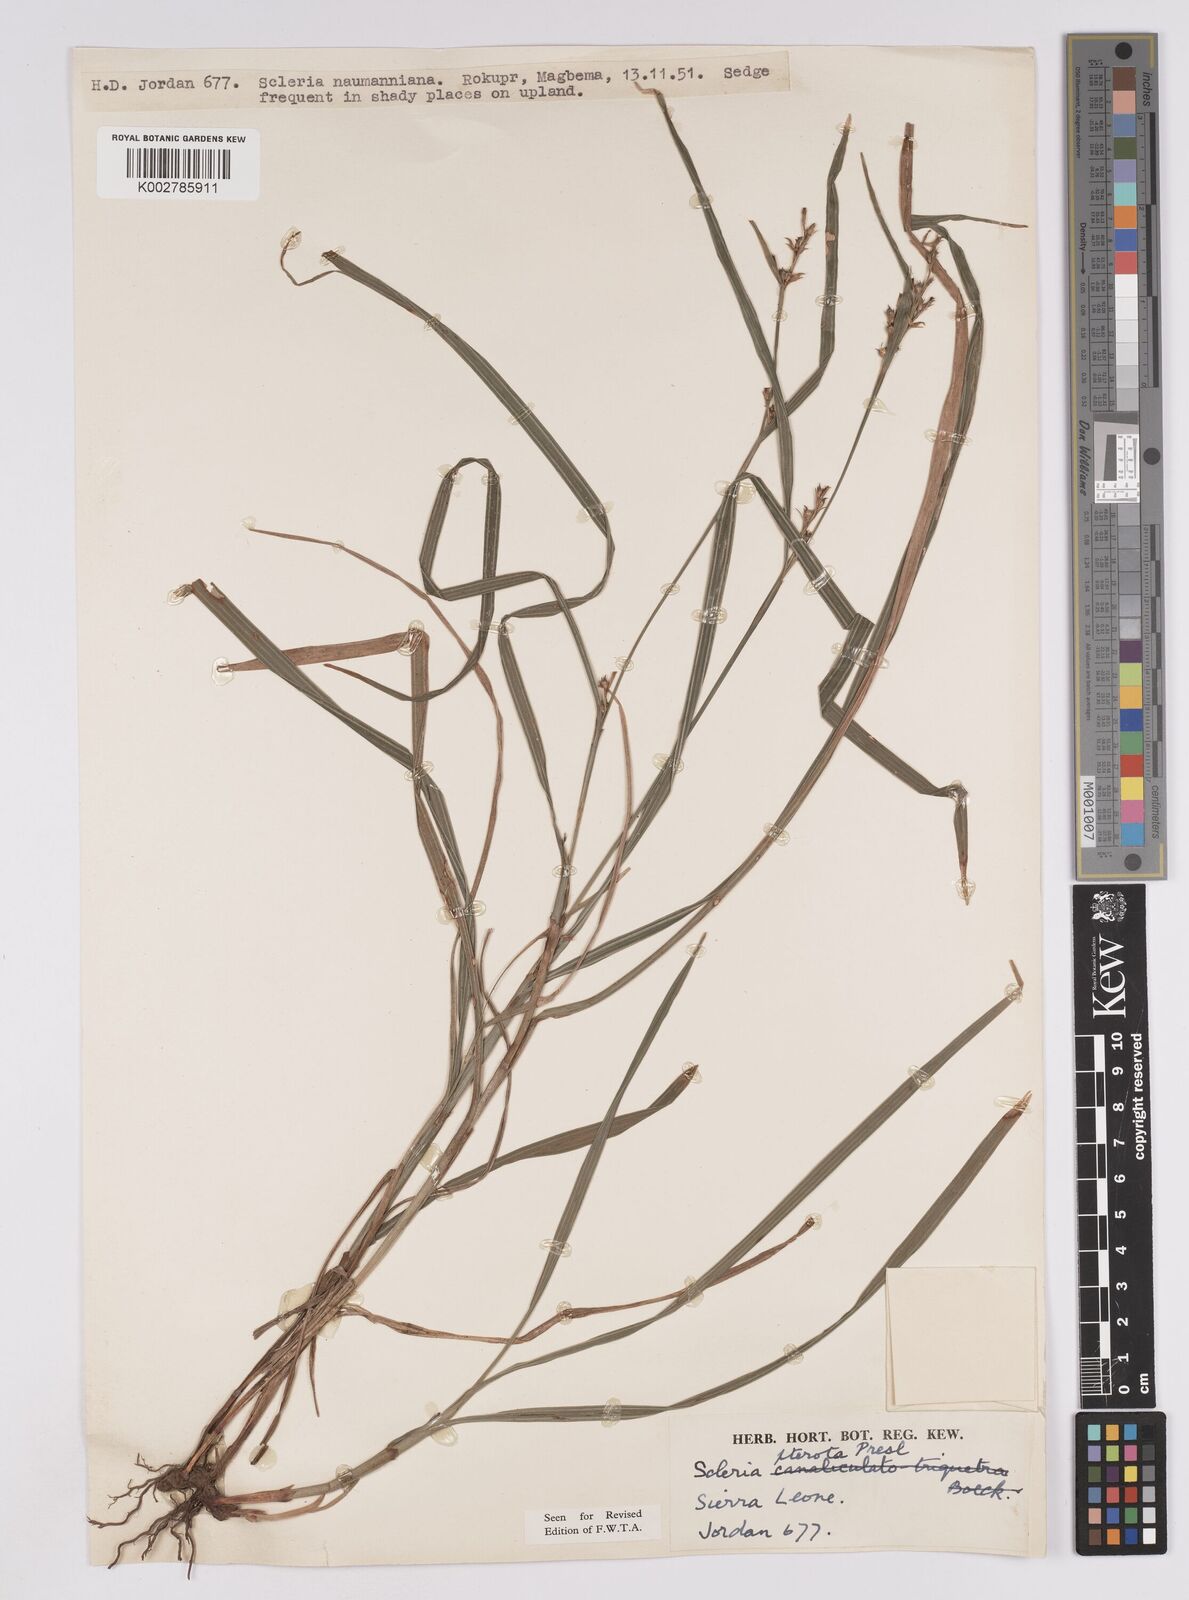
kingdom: Plantae
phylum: Tracheophyta
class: Liliopsida
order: Poales
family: Cyperaceae
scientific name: Cyperaceae
